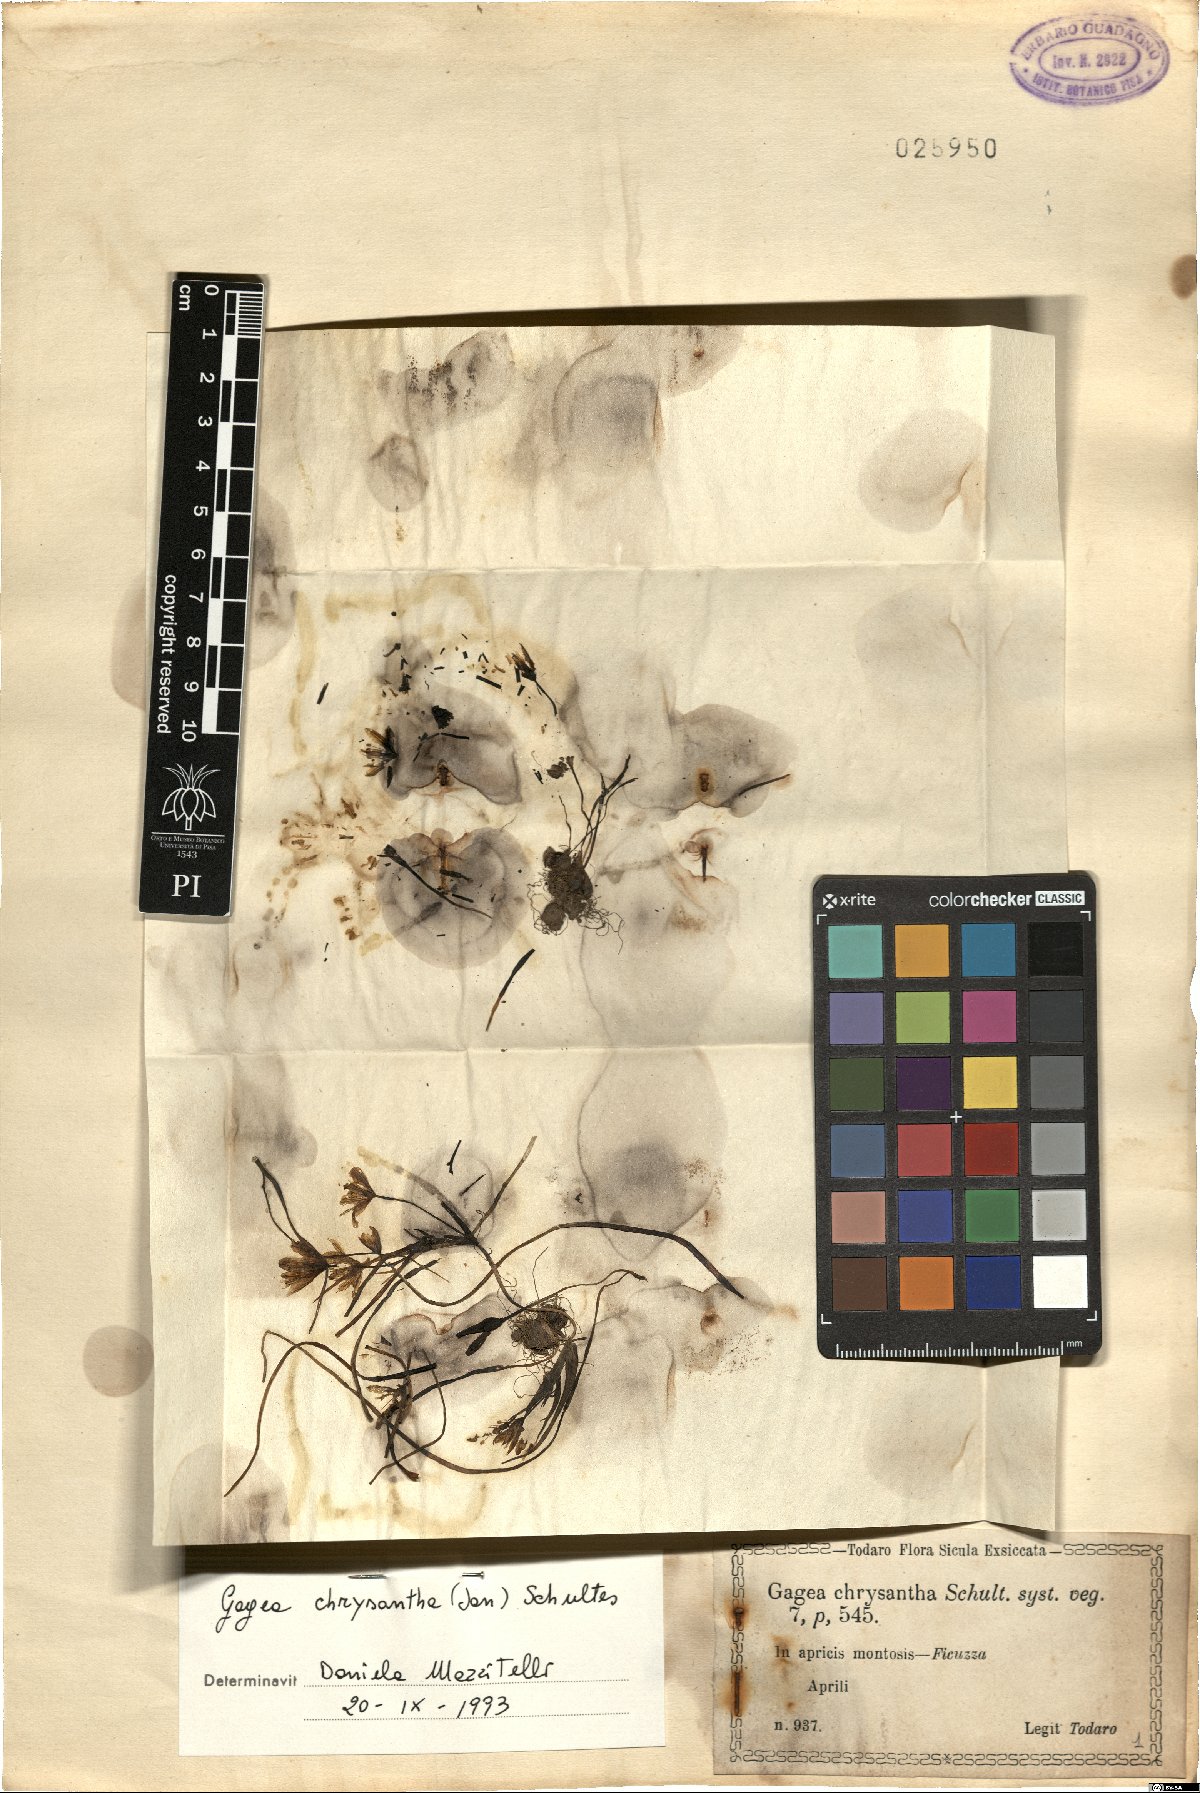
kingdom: Plantae
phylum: Tracheophyta
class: Liliopsida
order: Liliales
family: Liliaceae
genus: Gagea
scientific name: Gagea chrysantha
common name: Golden gagea
